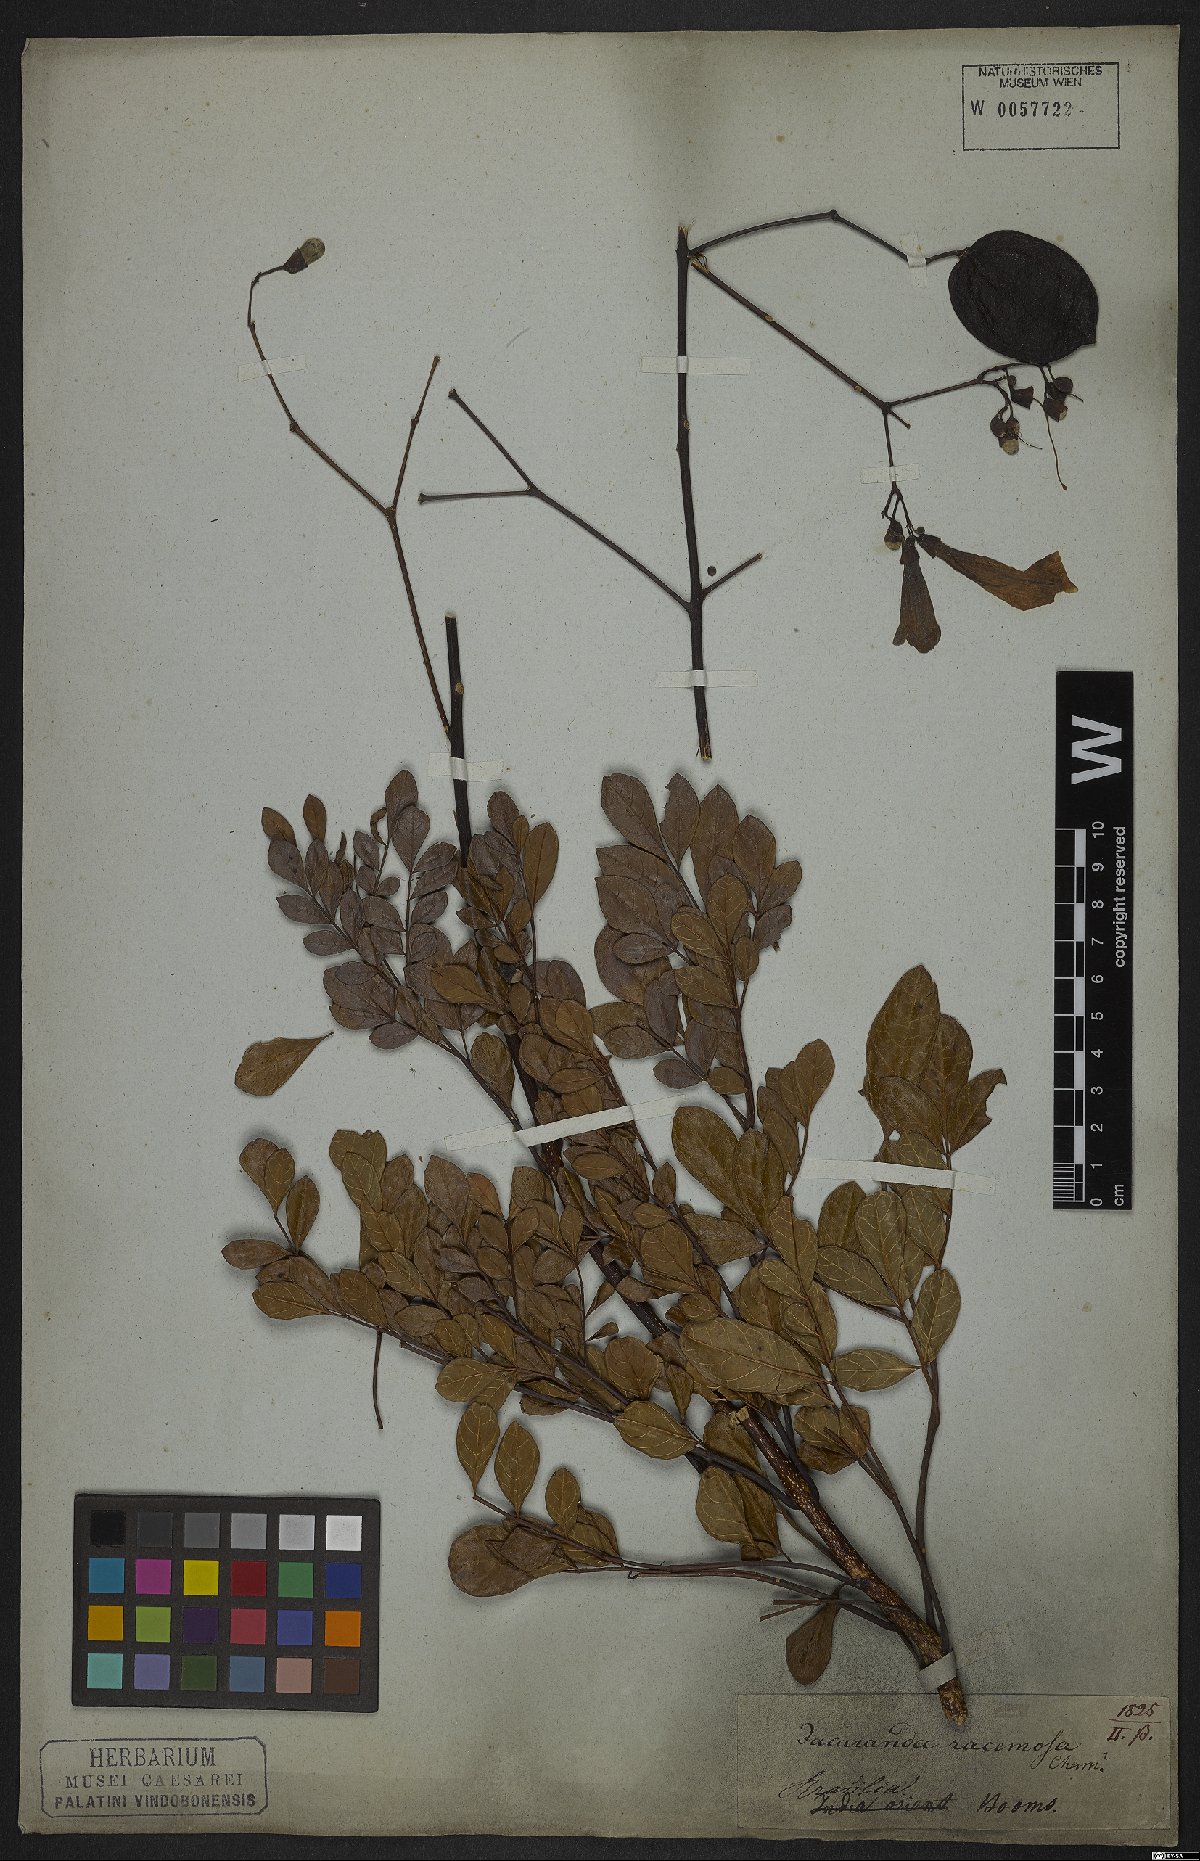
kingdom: Plantae
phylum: Tracheophyta
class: Magnoliopsida
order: Lamiales
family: Bignoniaceae
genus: Jacaranda
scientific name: Jacaranda racemosa
